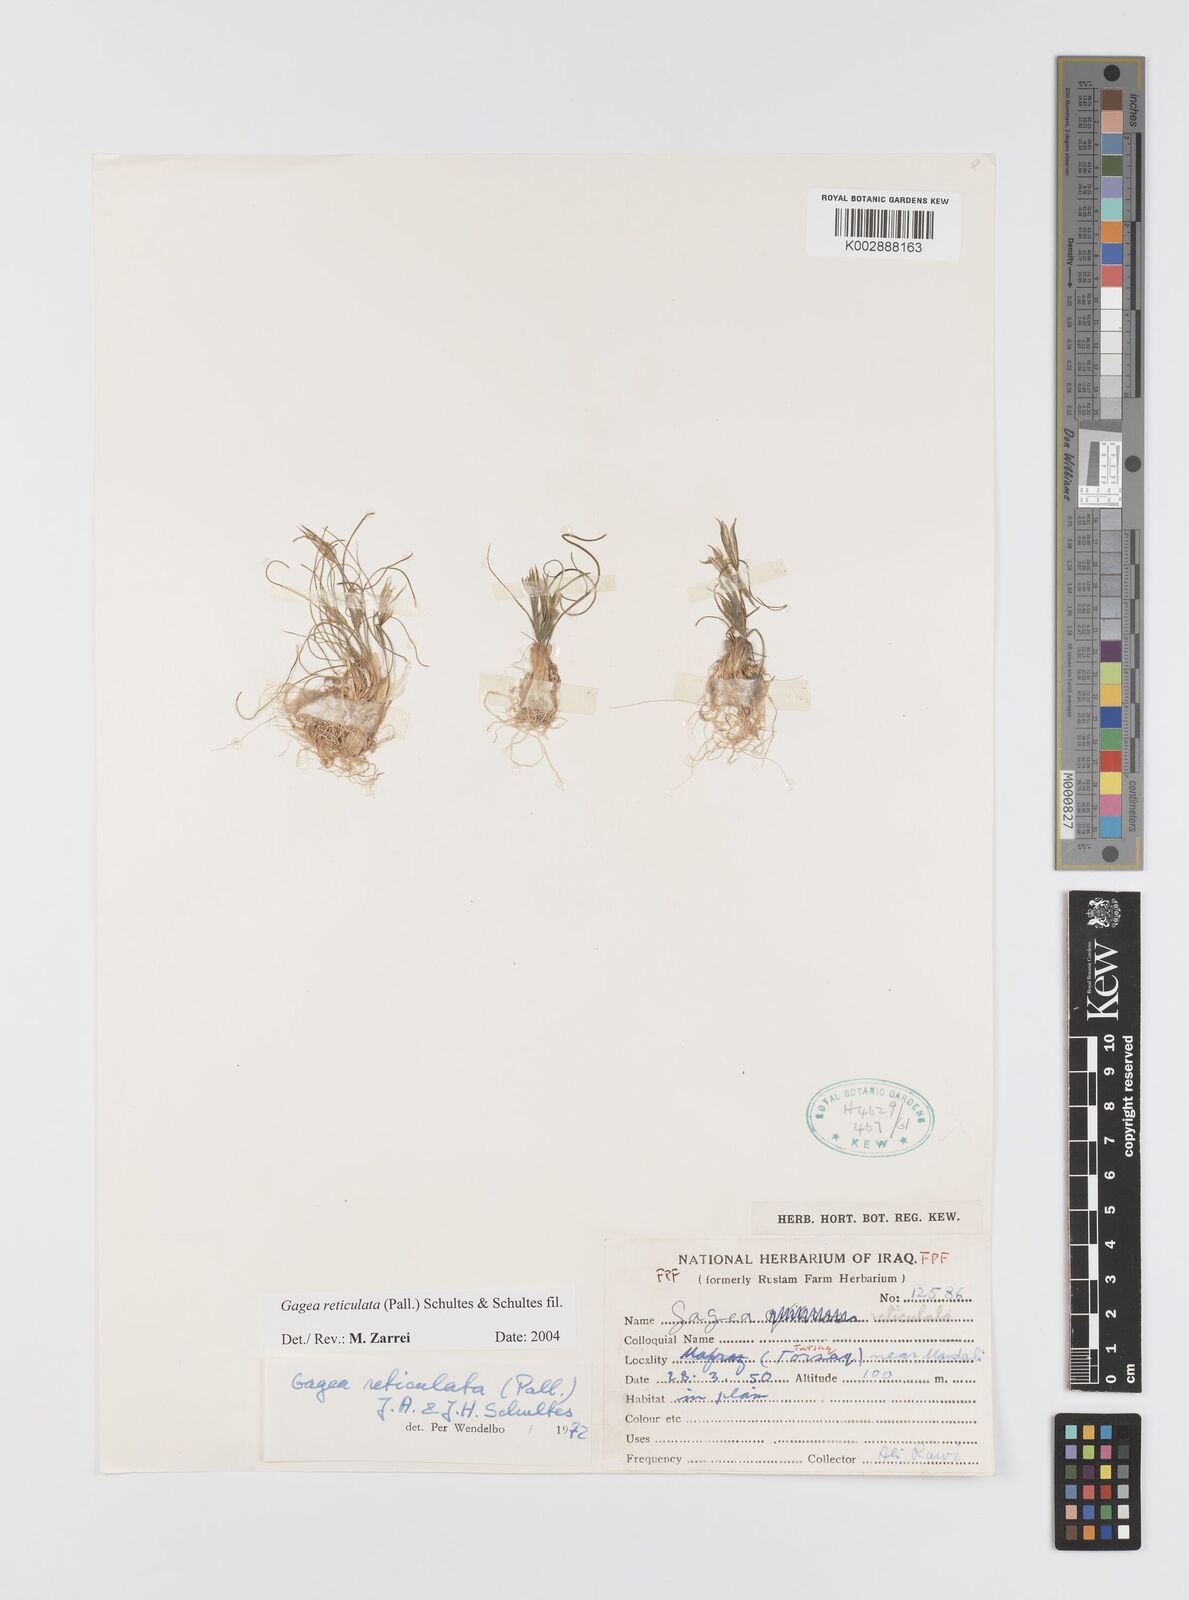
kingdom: Plantae
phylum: Tracheophyta
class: Liliopsida
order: Liliales
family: Liliaceae
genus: Gagea
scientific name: Gagea reticulata
